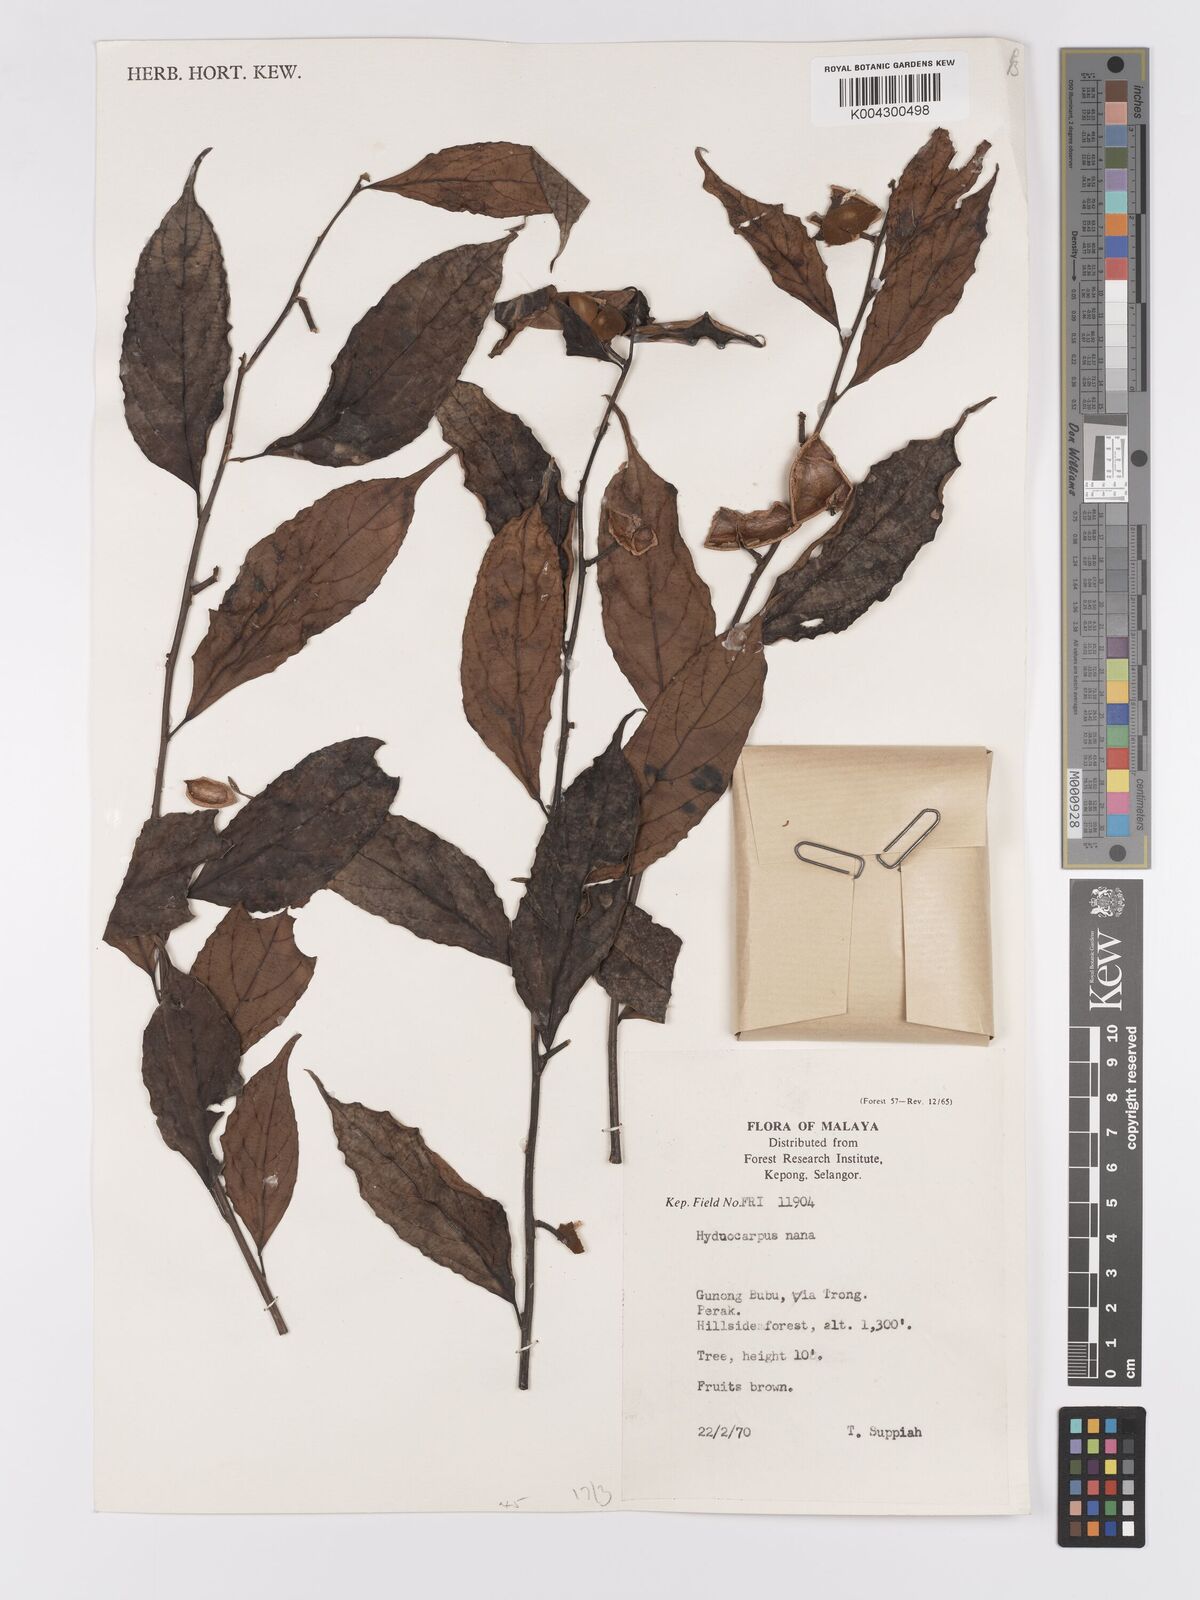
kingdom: Plantae
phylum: Tracheophyta
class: Magnoliopsida
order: Malpighiales
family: Achariaceae
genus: Hydnocarpus
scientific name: Hydnocarpus nanus
